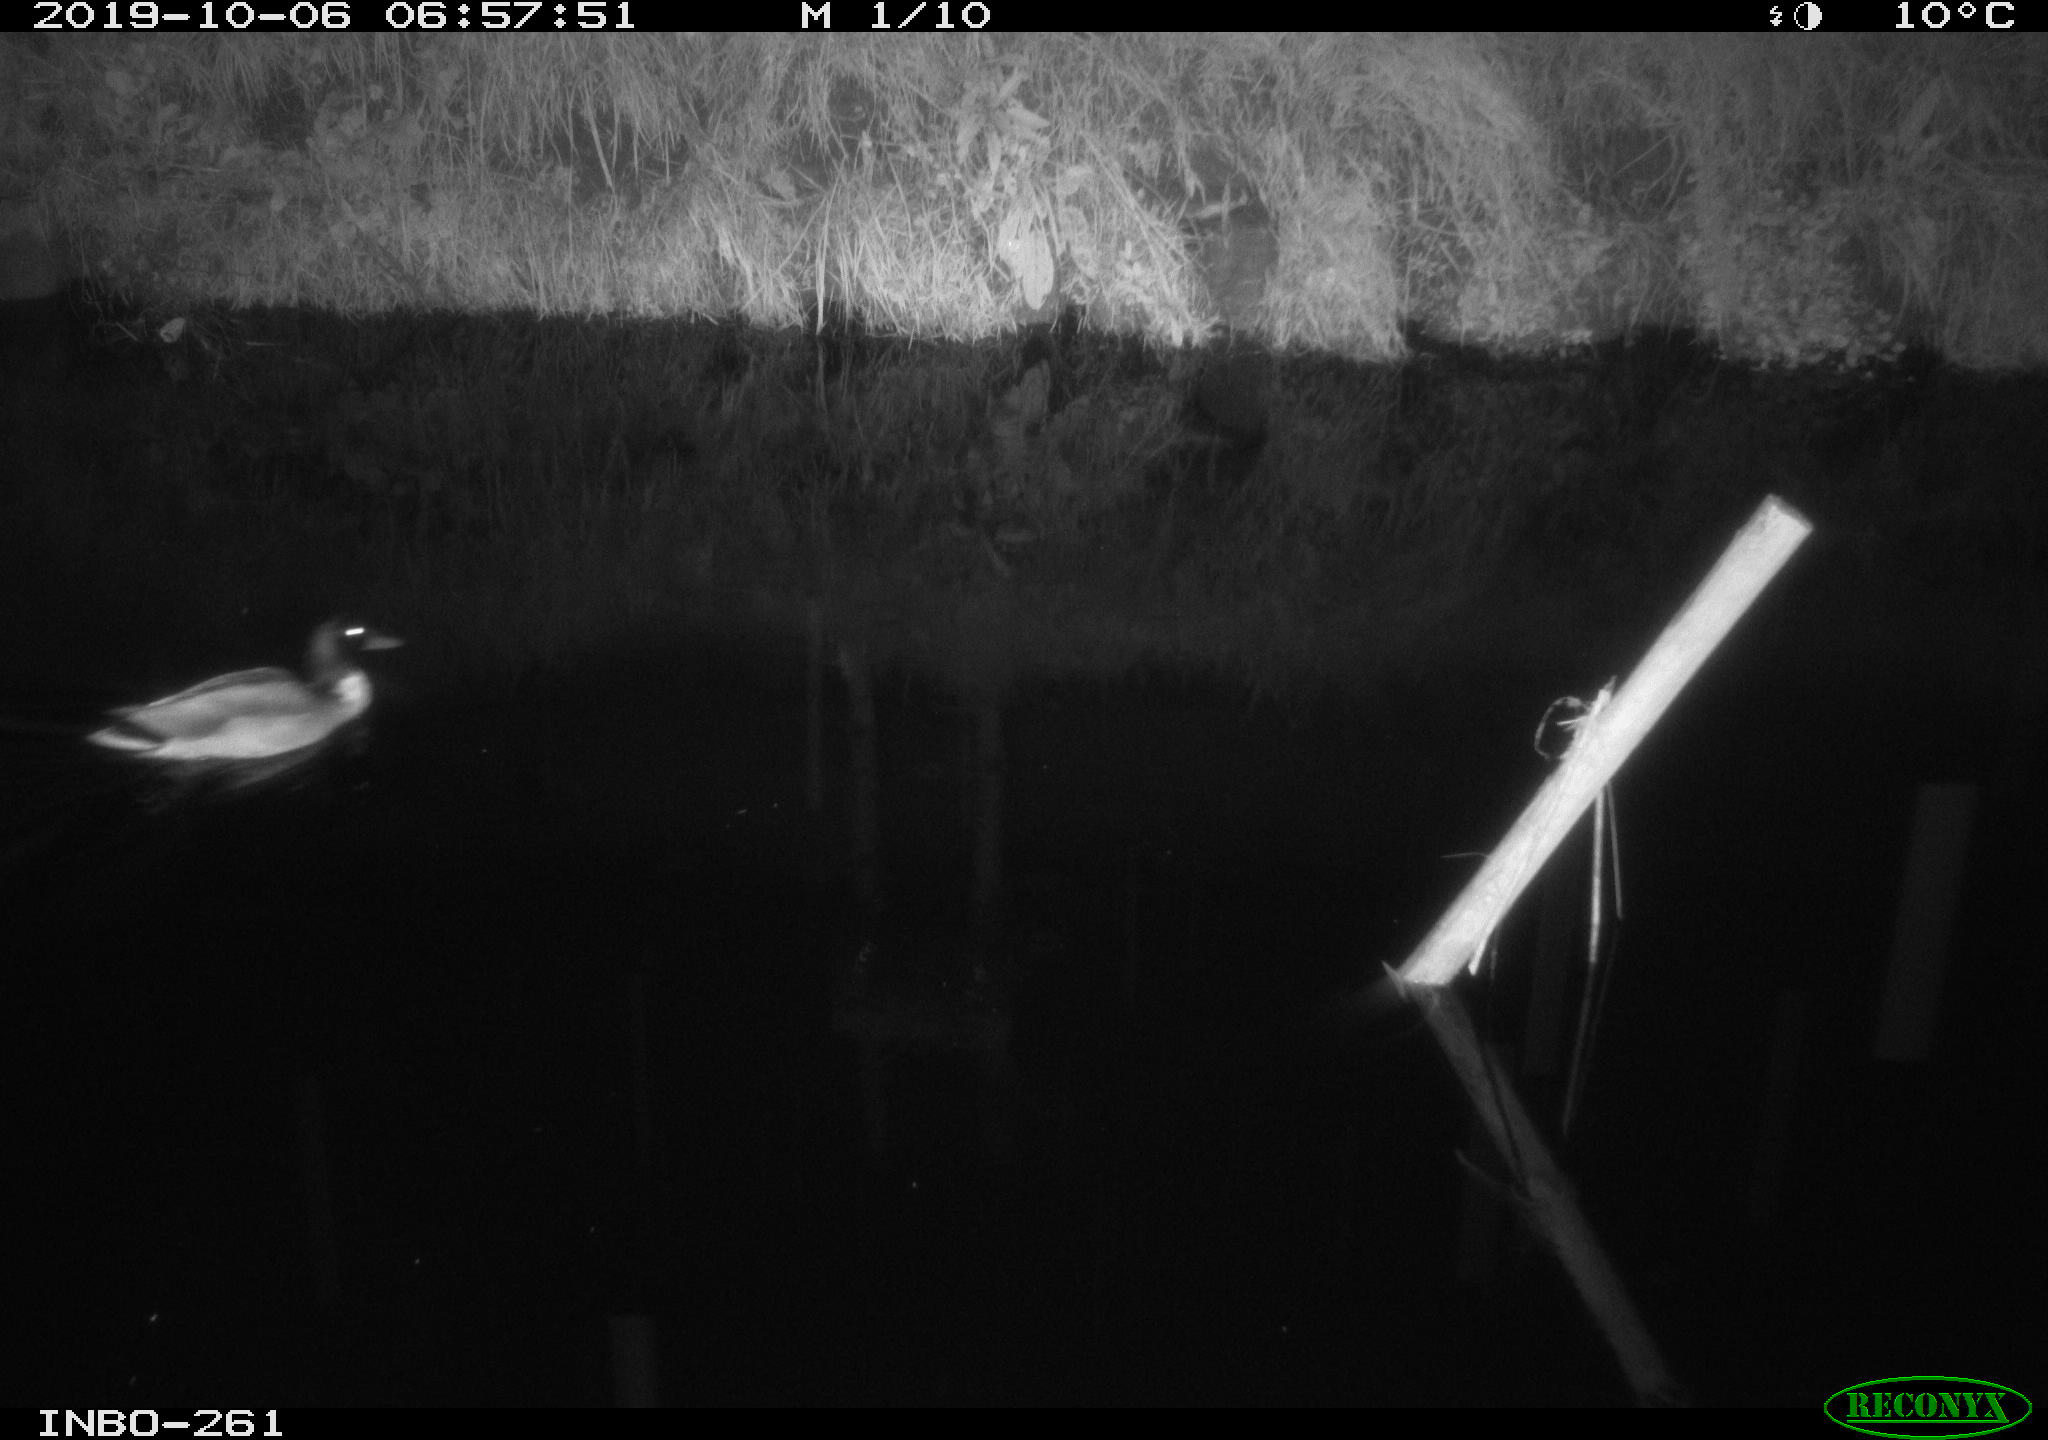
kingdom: Animalia
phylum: Chordata
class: Aves
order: Anseriformes
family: Anatidae
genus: Anas
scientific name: Anas platyrhynchos
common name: Mallard
